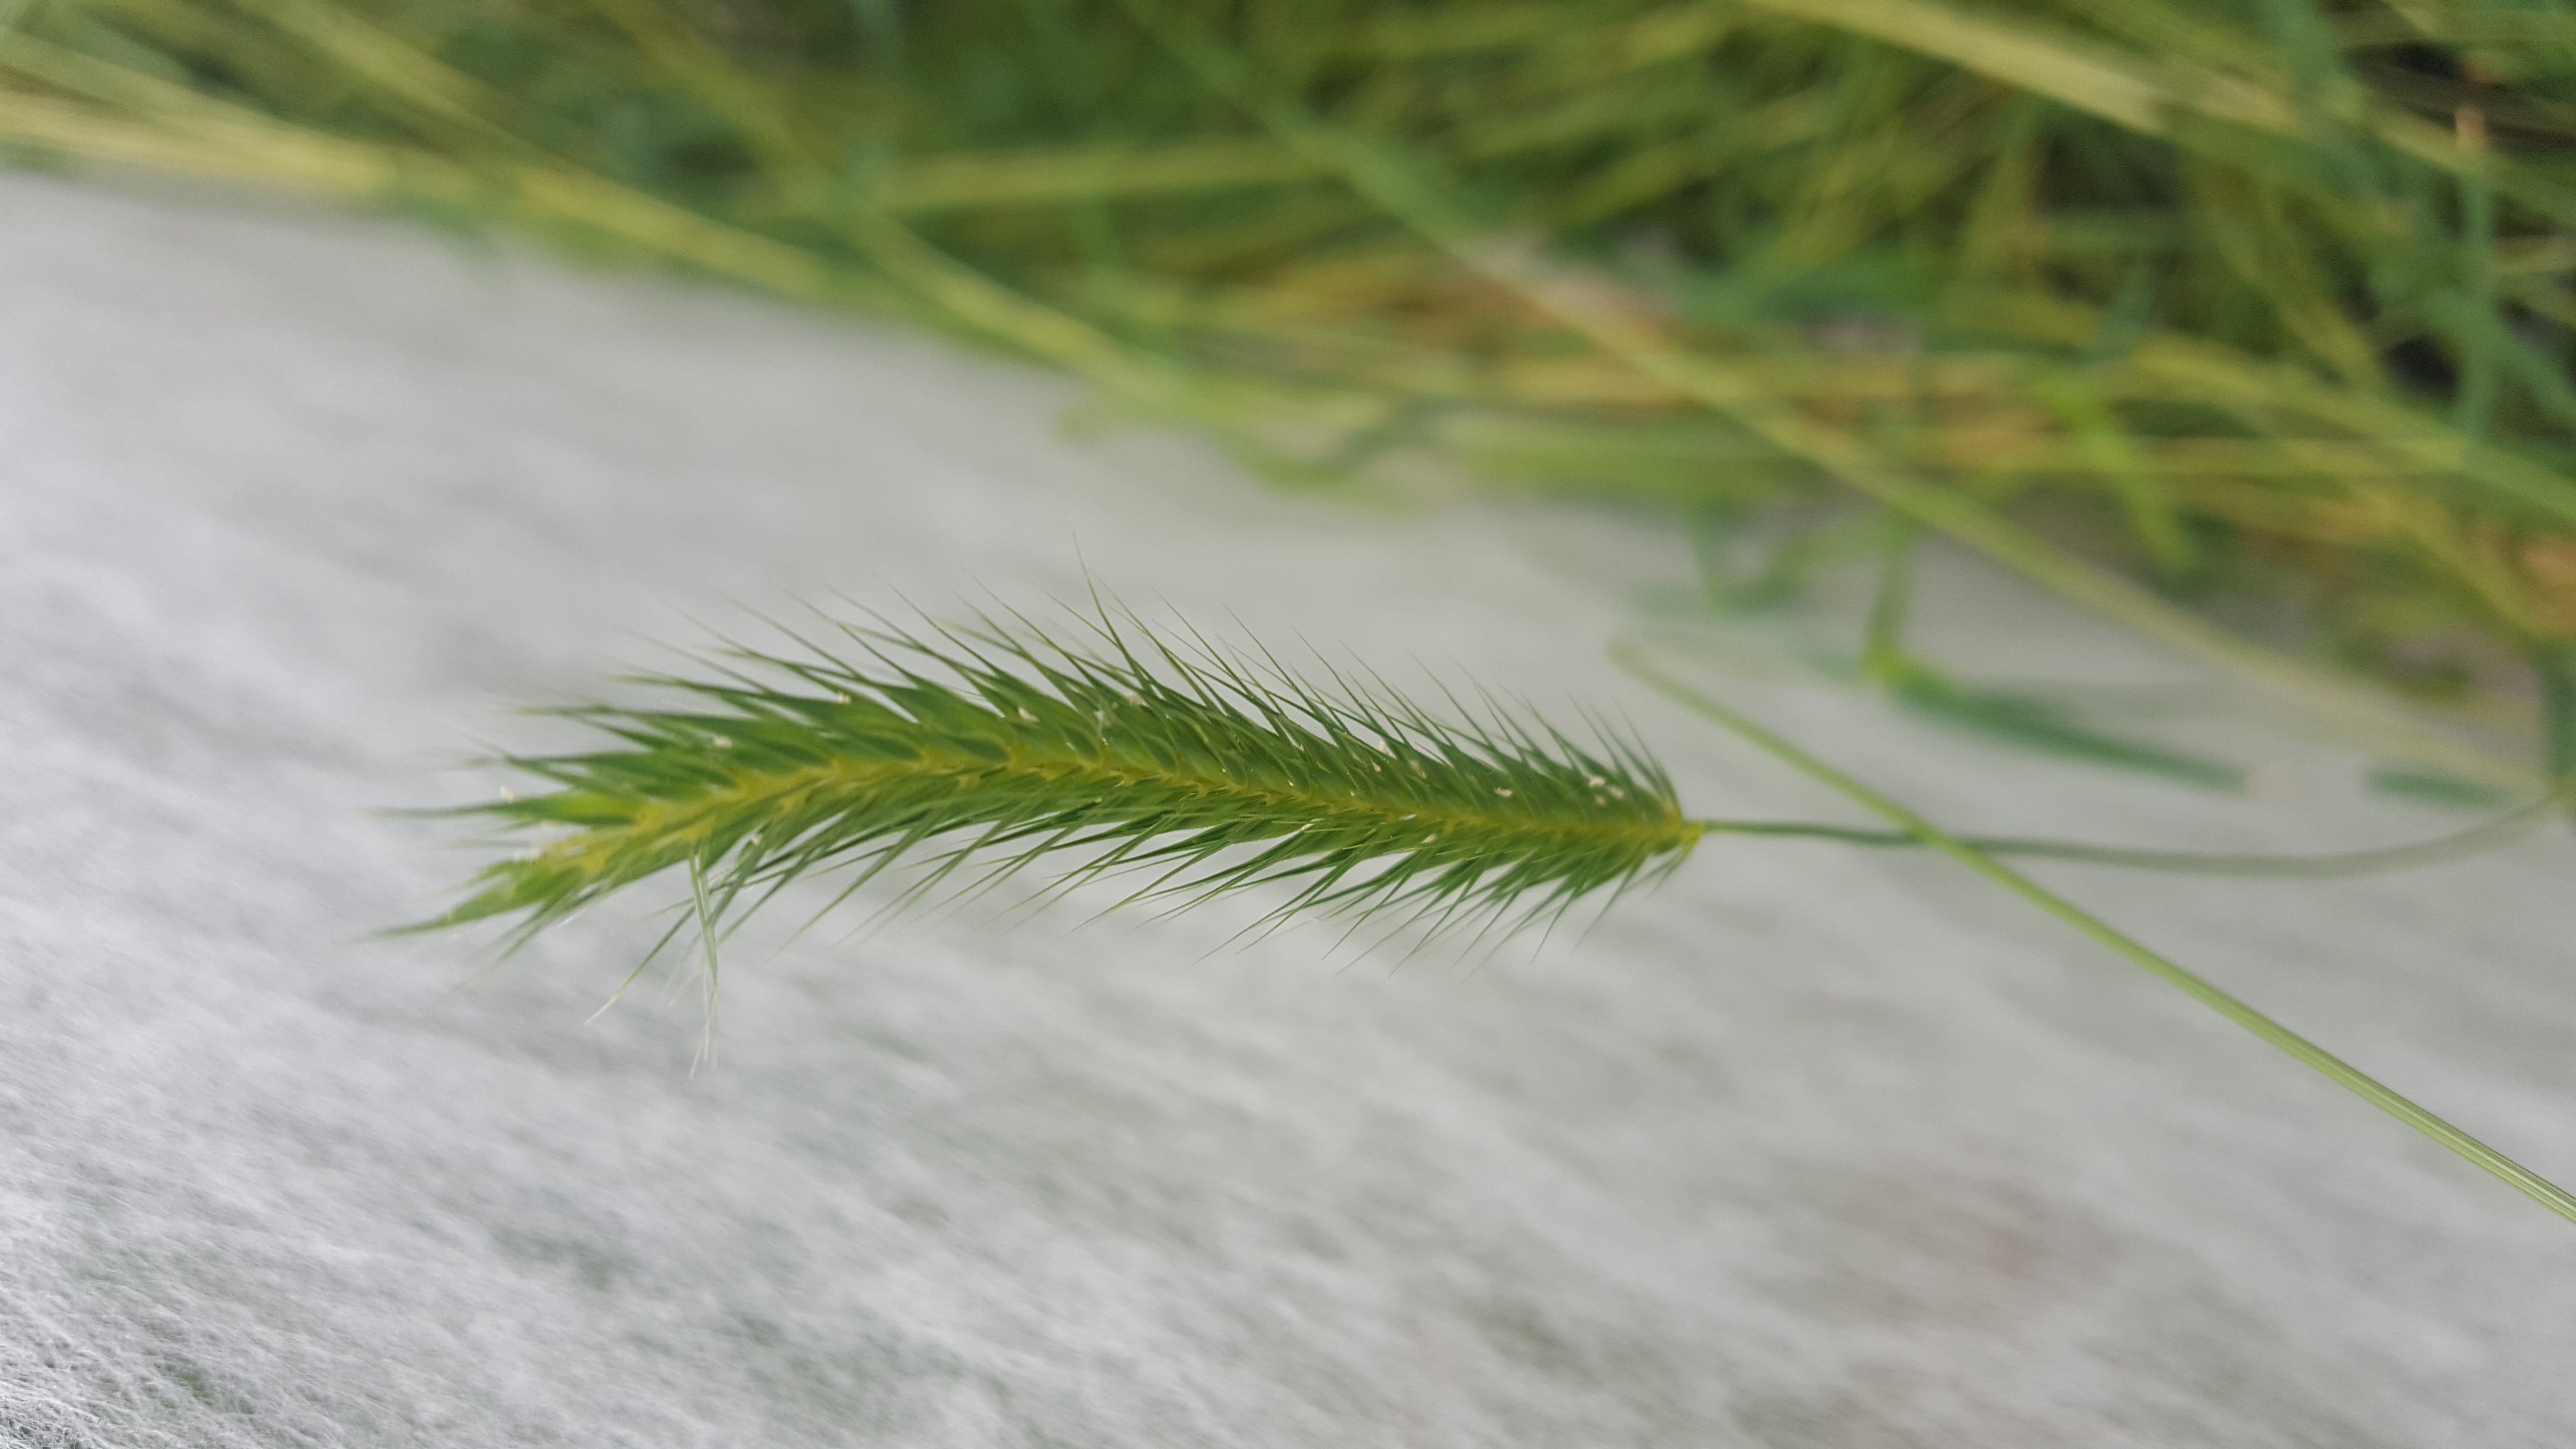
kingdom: Plantae
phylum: Tracheophyta
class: Liliopsida
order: Poales
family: Poaceae
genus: Hordeum
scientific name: Hordeum pusillum
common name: Little barley
